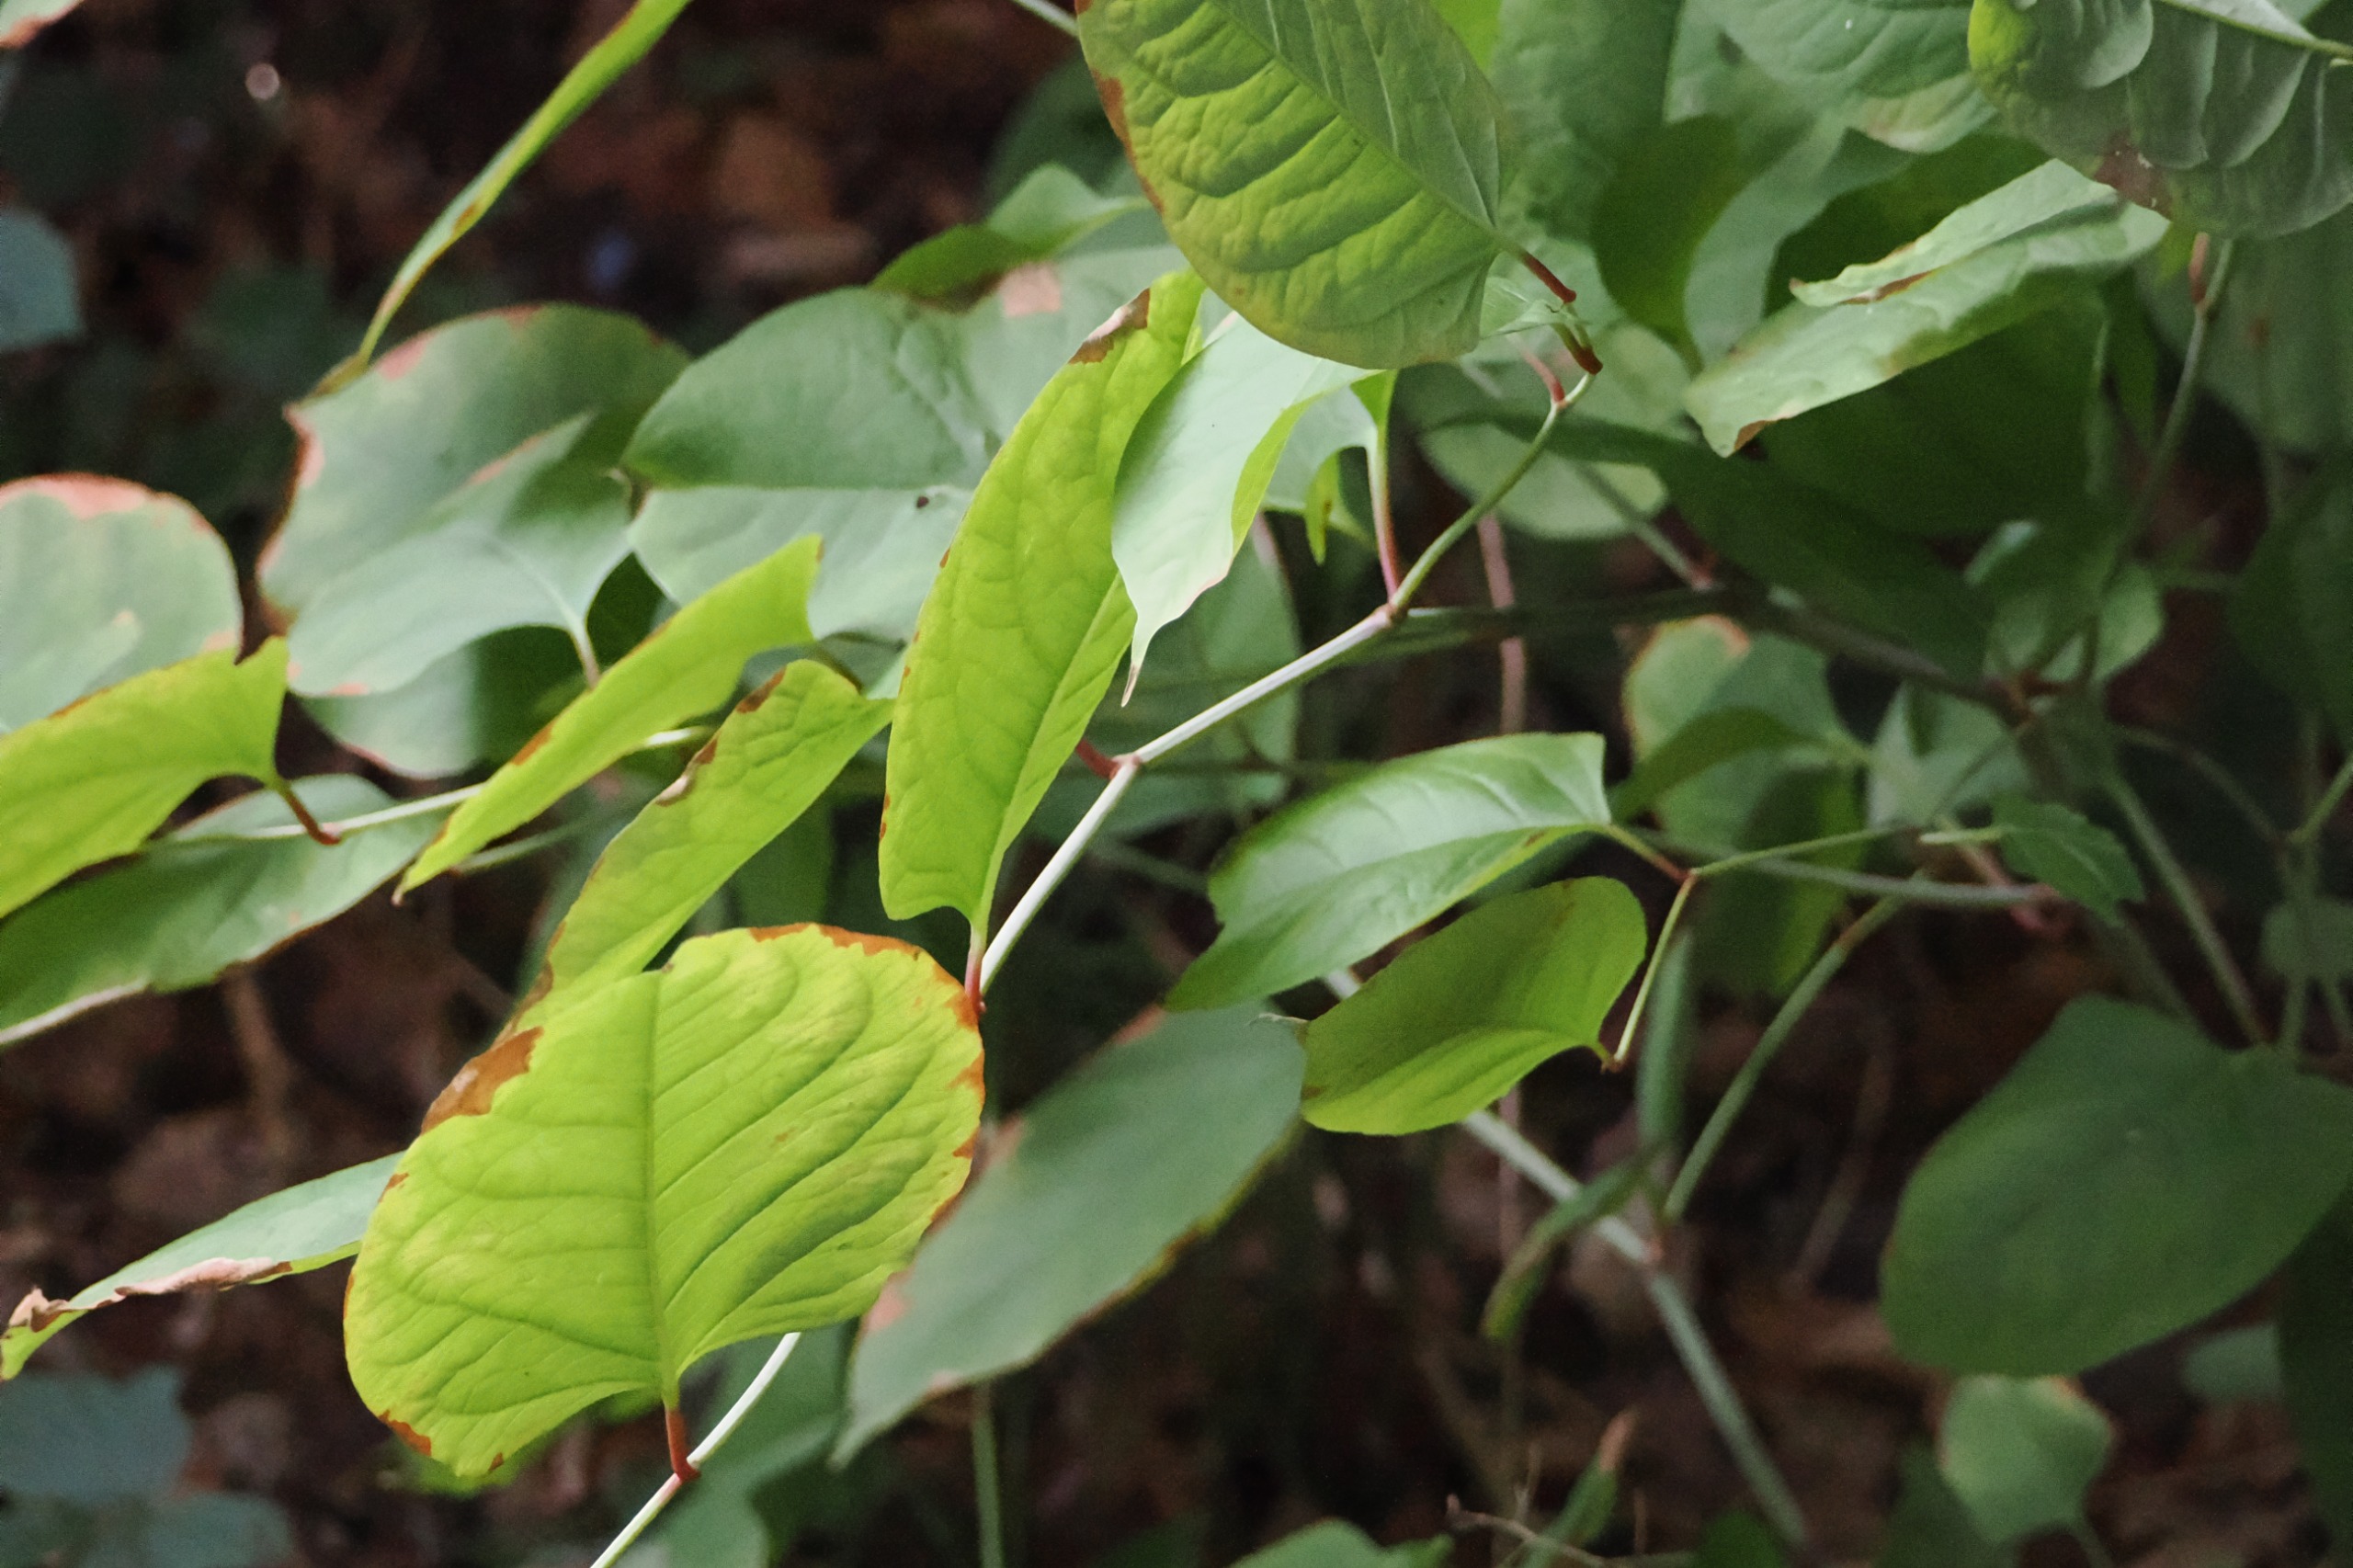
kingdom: Plantae
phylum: Tracheophyta
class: Magnoliopsida
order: Caryophyllales
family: Polygonaceae
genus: Reynoutria
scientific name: Reynoutria japonica
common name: Japan-pileurt
